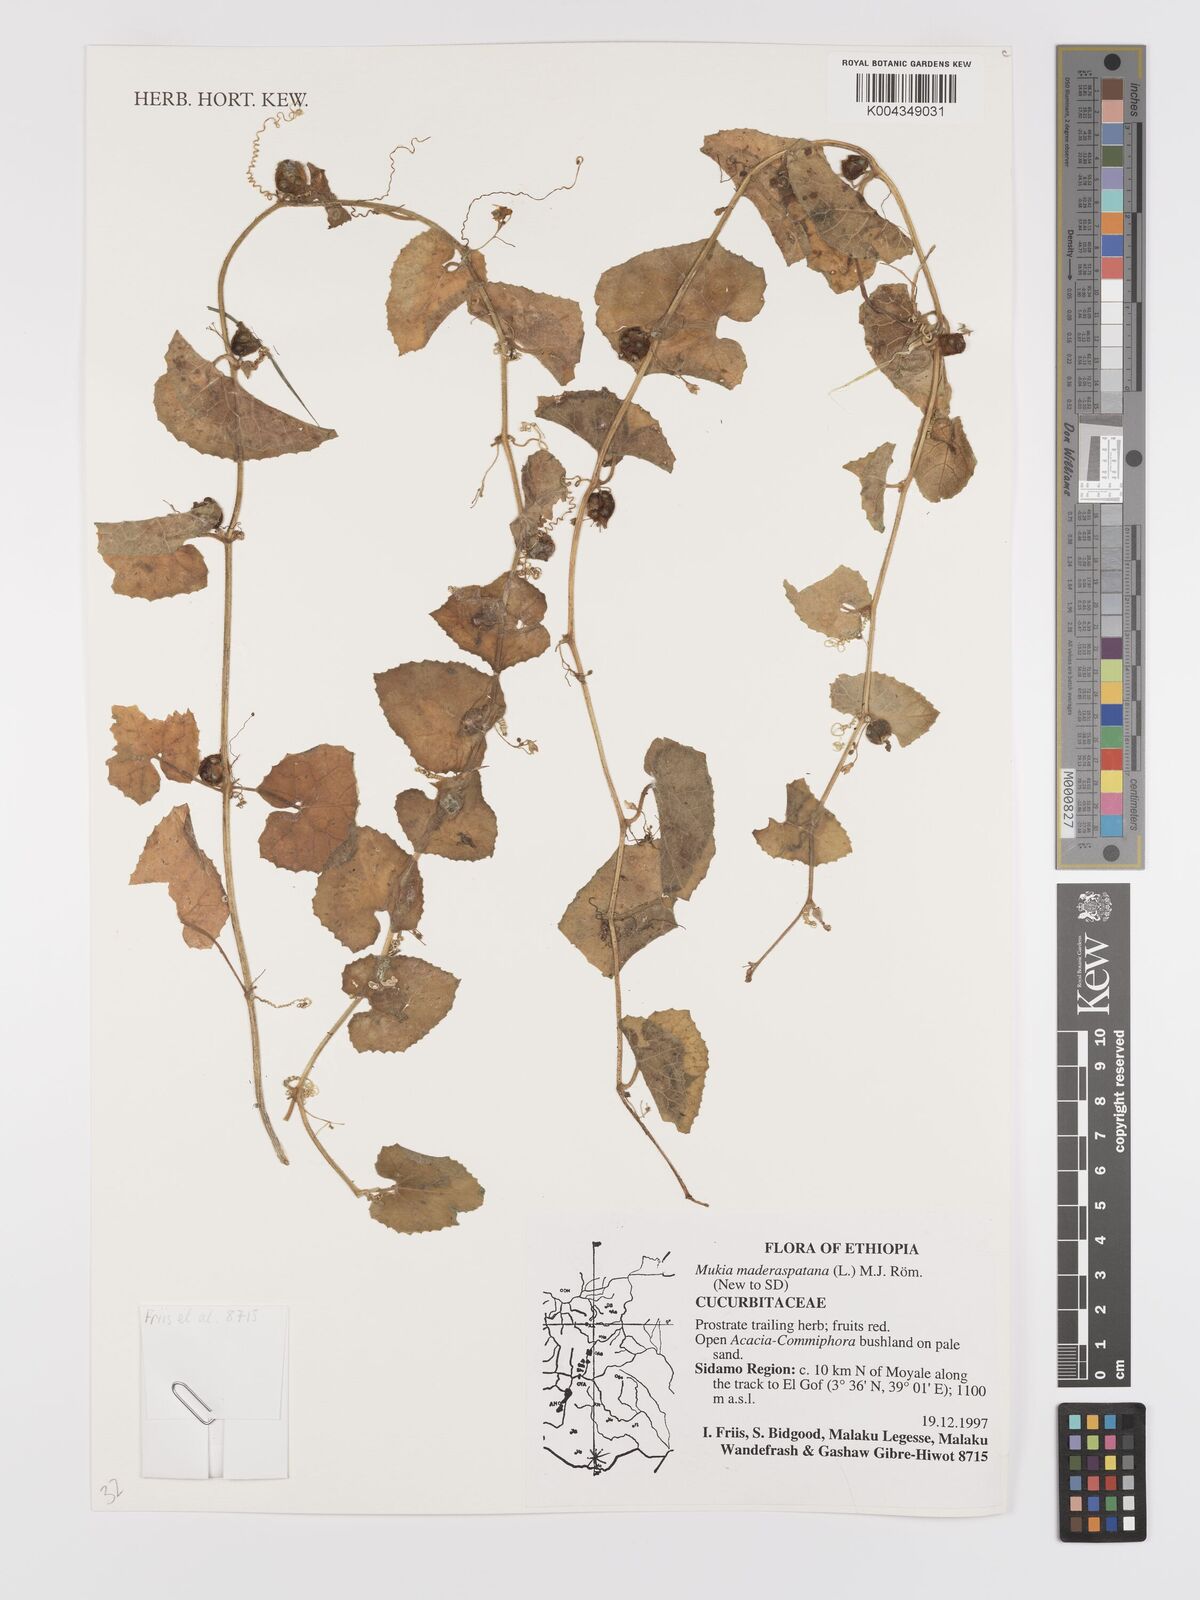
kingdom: Plantae
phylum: Tracheophyta
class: Magnoliopsida
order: Cucurbitales
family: Cucurbitaceae
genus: Cucumis
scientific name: Cucumis maderaspatanus
